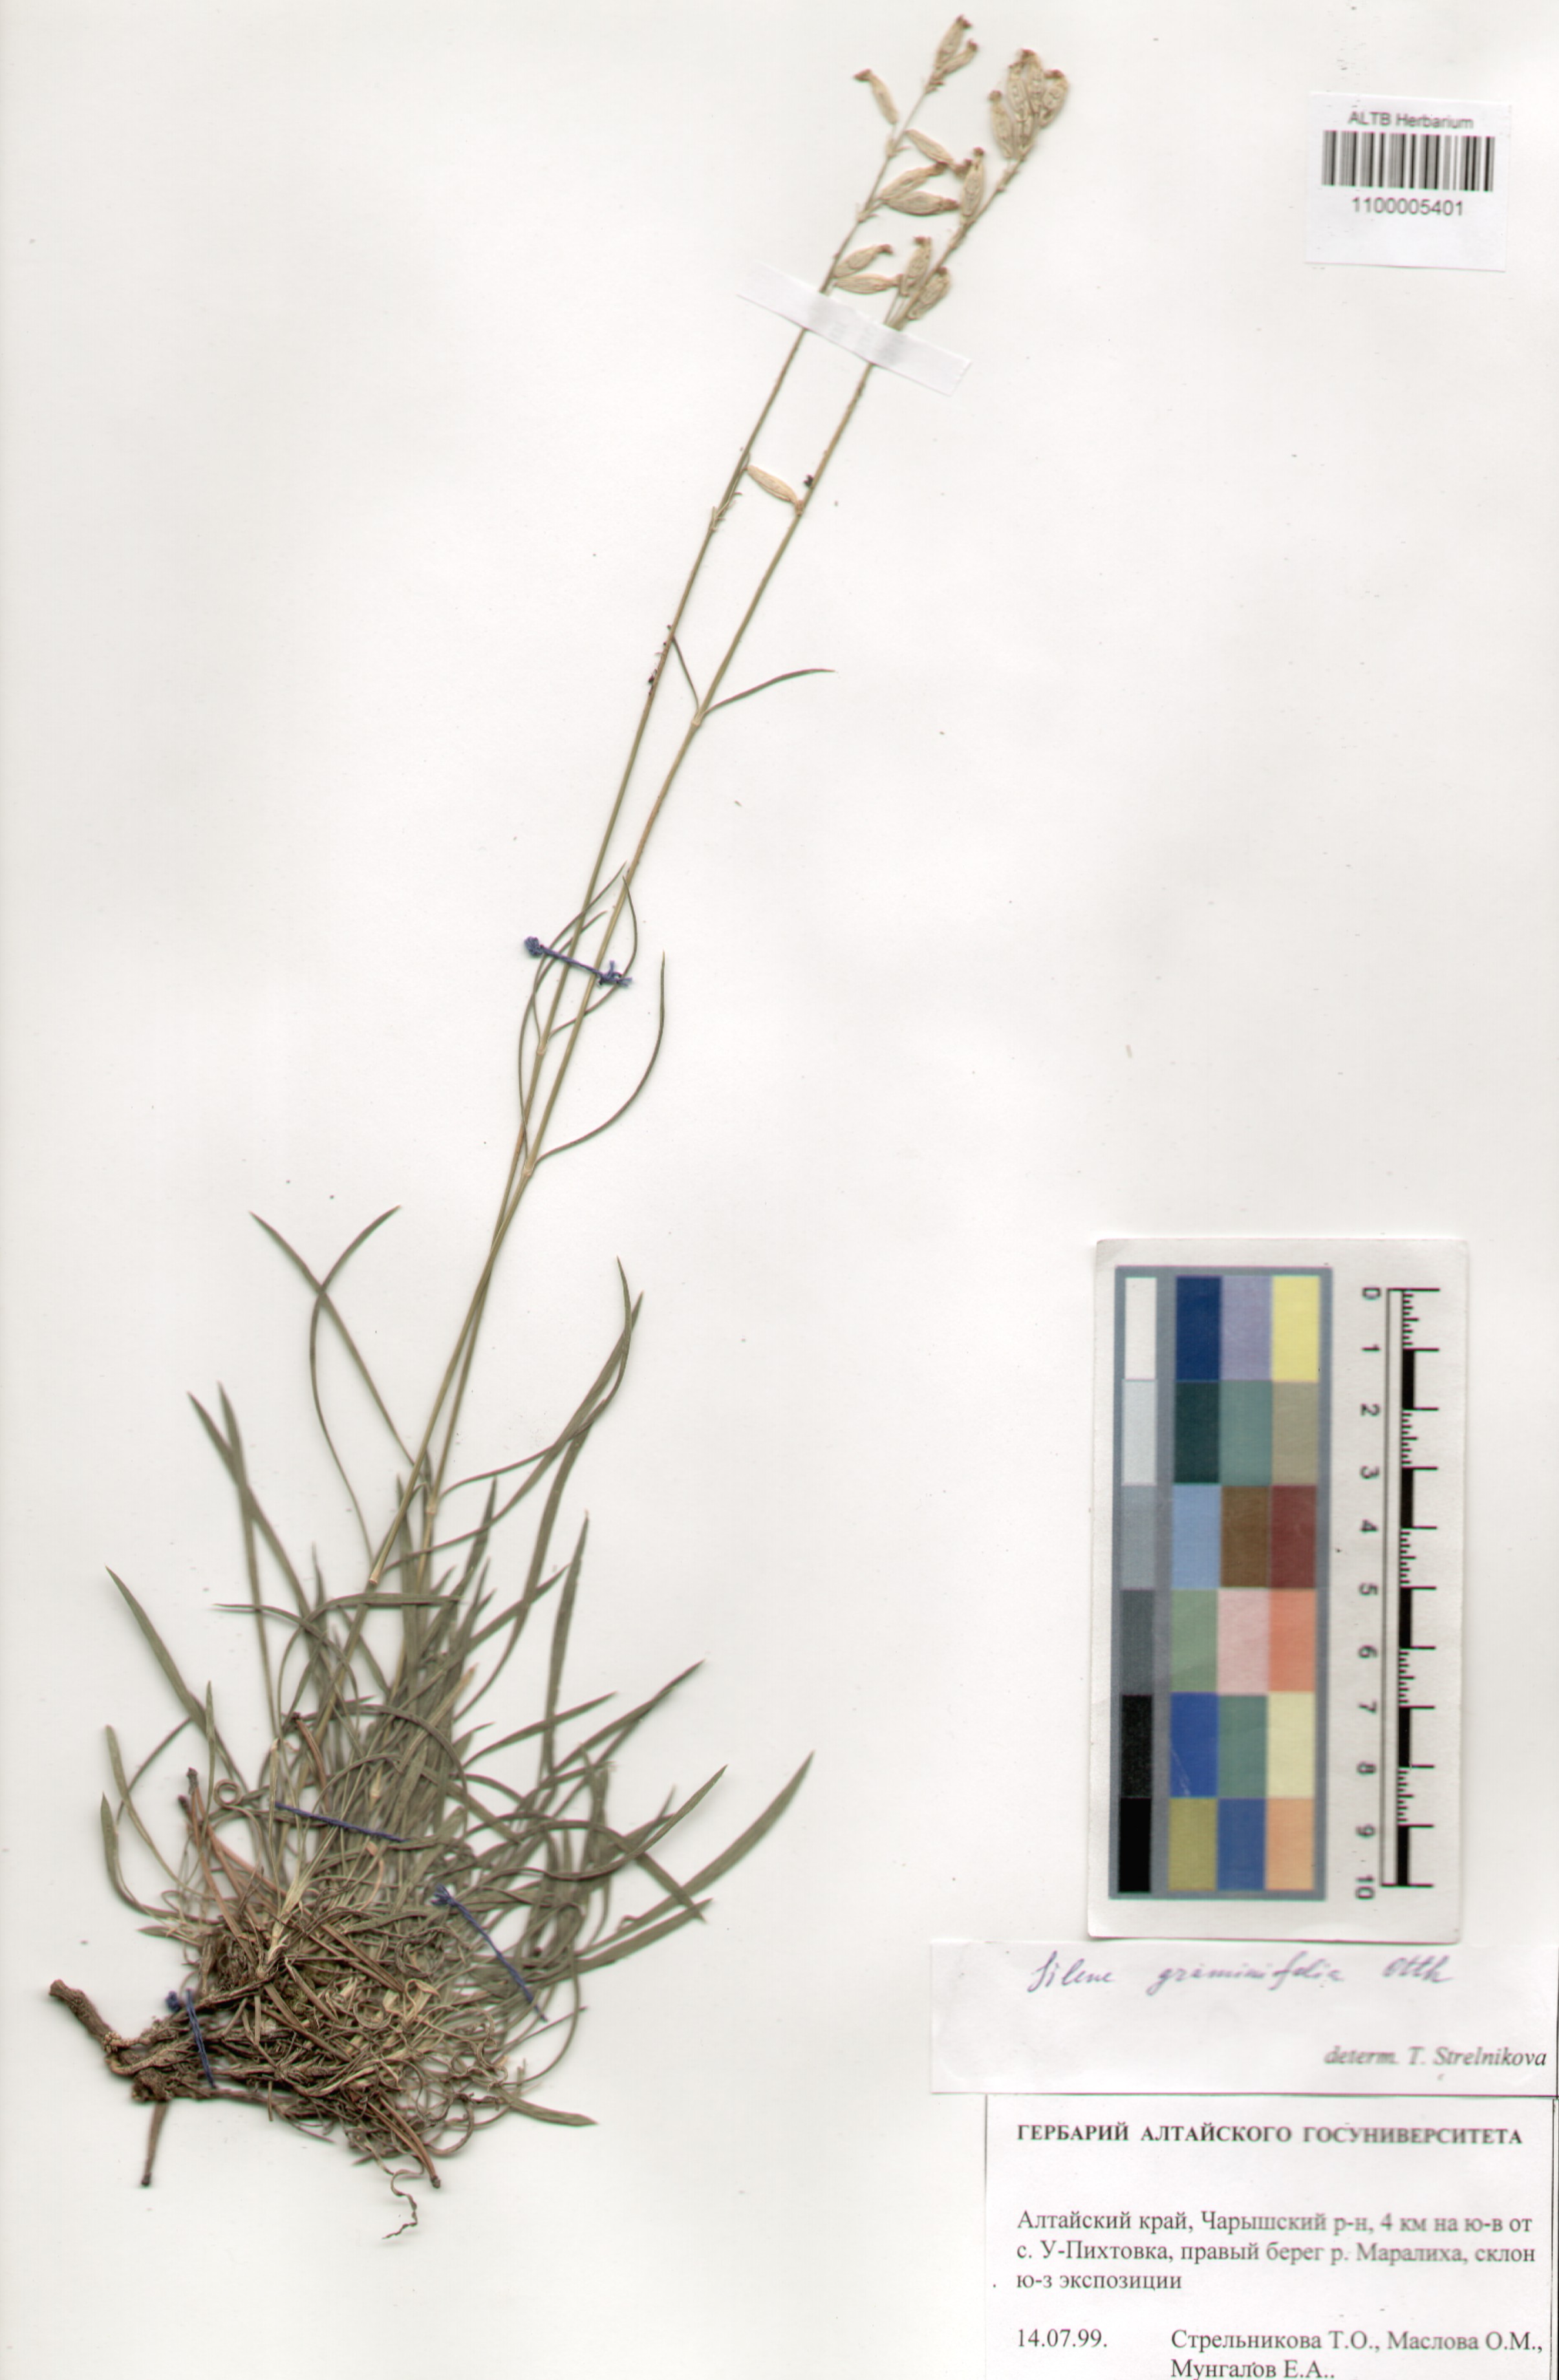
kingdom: Plantae
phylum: Tracheophyta
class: Magnoliopsida
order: Caryophyllales
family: Caryophyllaceae
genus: Silene
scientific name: Silene graminifolia
